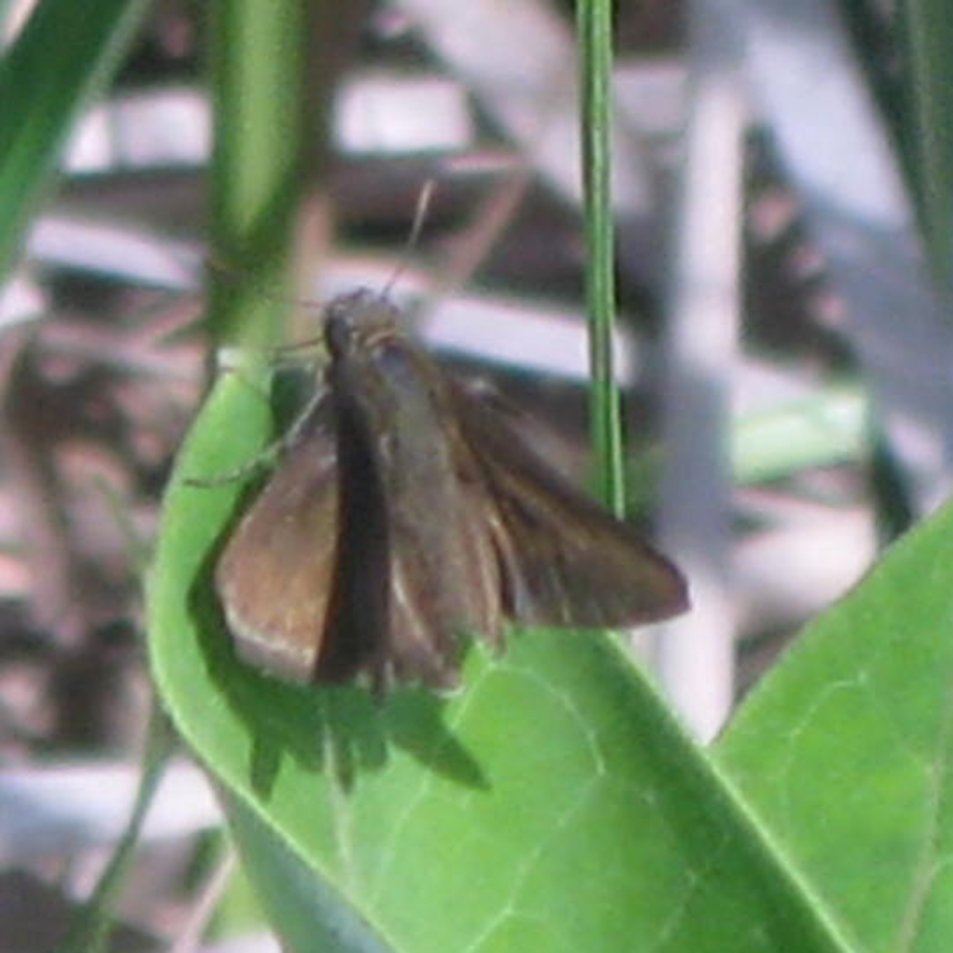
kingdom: Animalia
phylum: Arthropoda
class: Insecta
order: Lepidoptera
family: Hesperiidae
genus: Euphyes
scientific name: Euphyes vestris
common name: Dun Skipper
